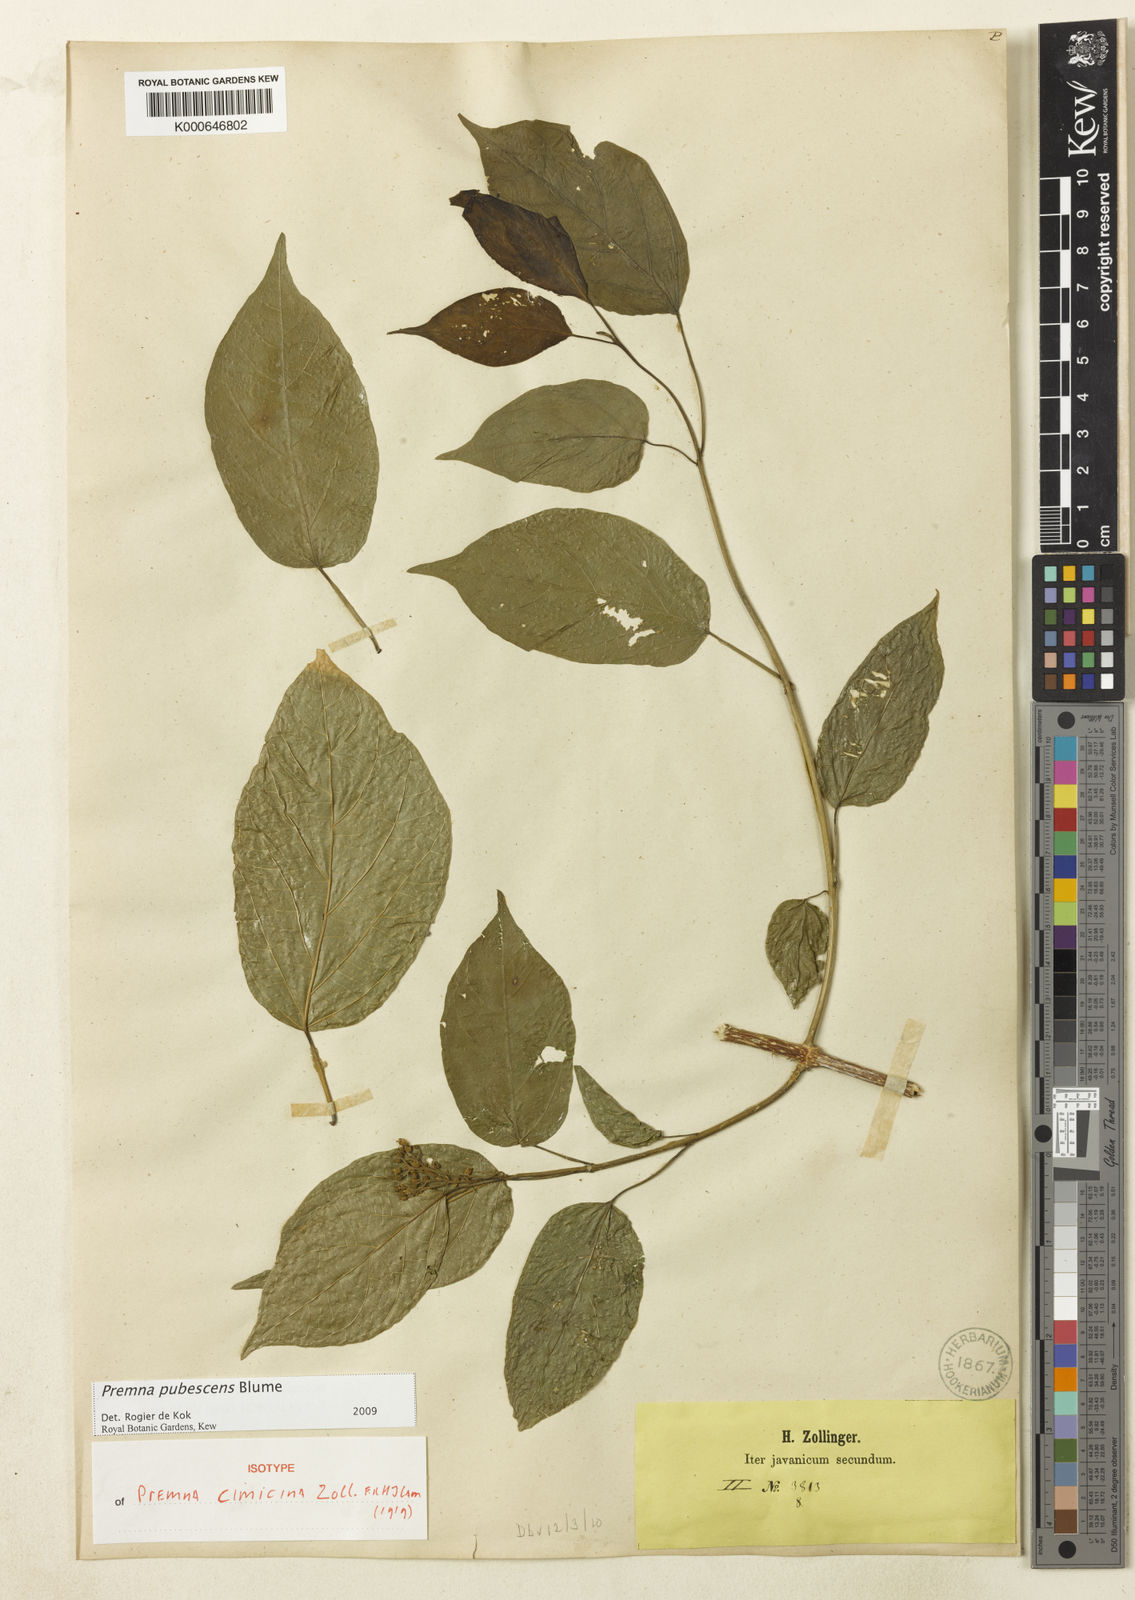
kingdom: Plantae
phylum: Tracheophyta
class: Magnoliopsida
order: Lamiales
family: Lamiaceae
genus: Premna
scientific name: Premna pubescens
